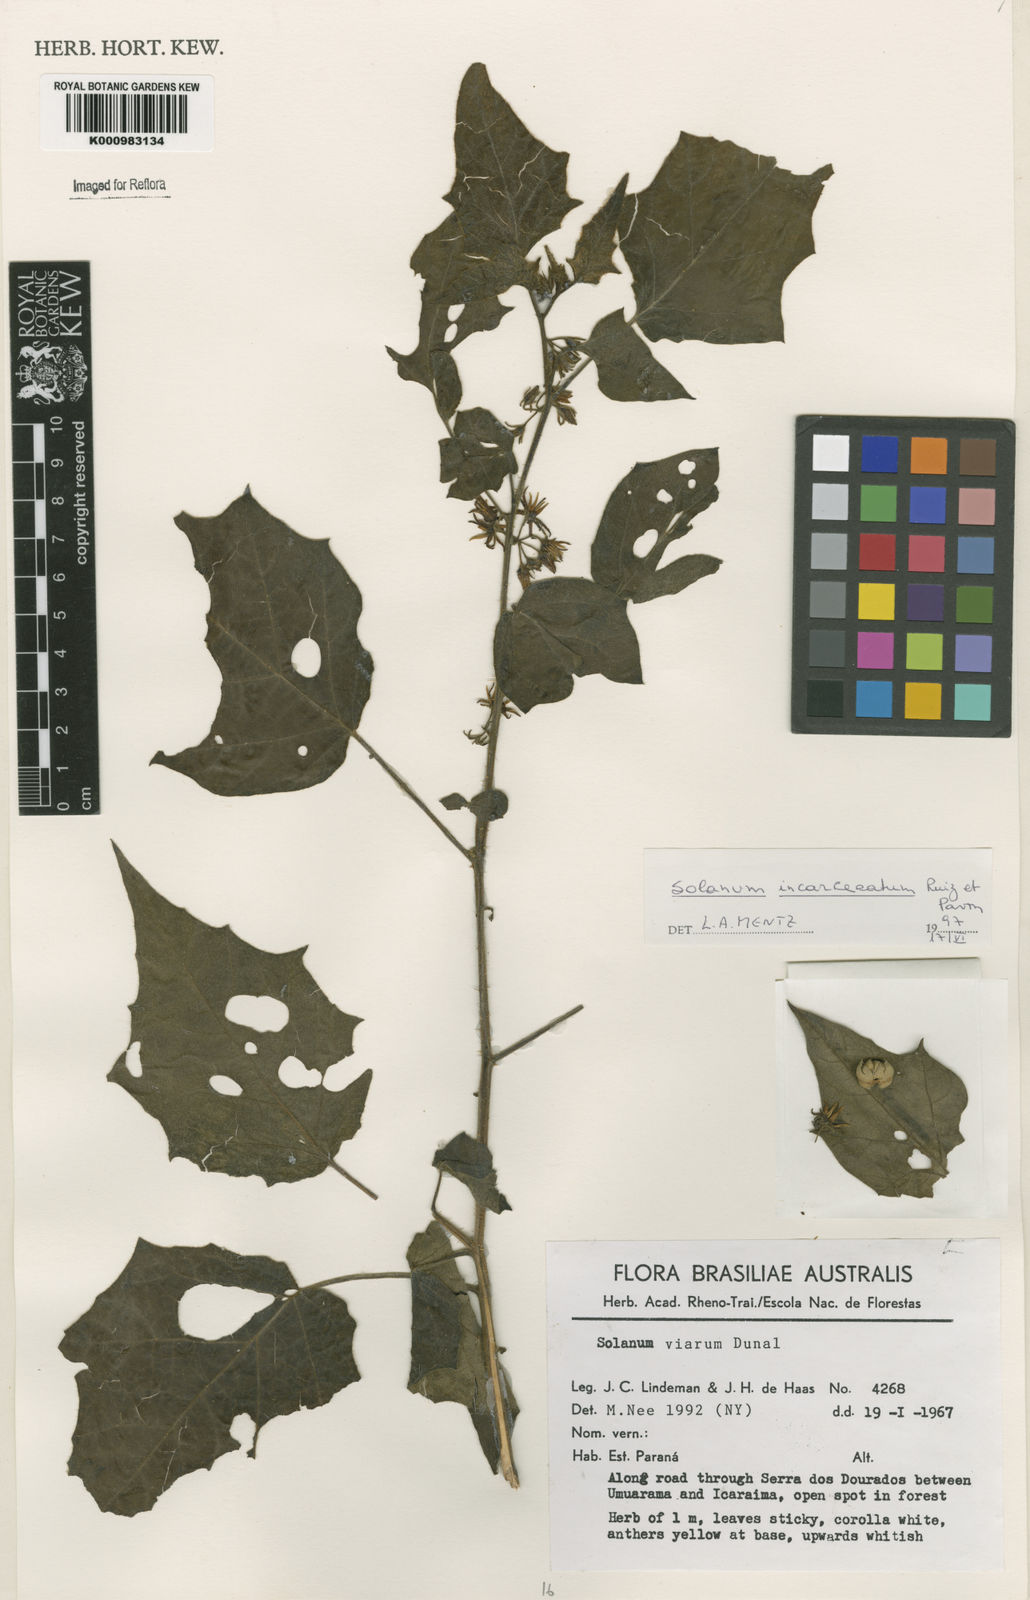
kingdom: Plantae
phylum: Tracheophyta
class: Magnoliopsida
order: Solanales
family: Solanaceae
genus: Solanum
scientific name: Solanum incarceratum
